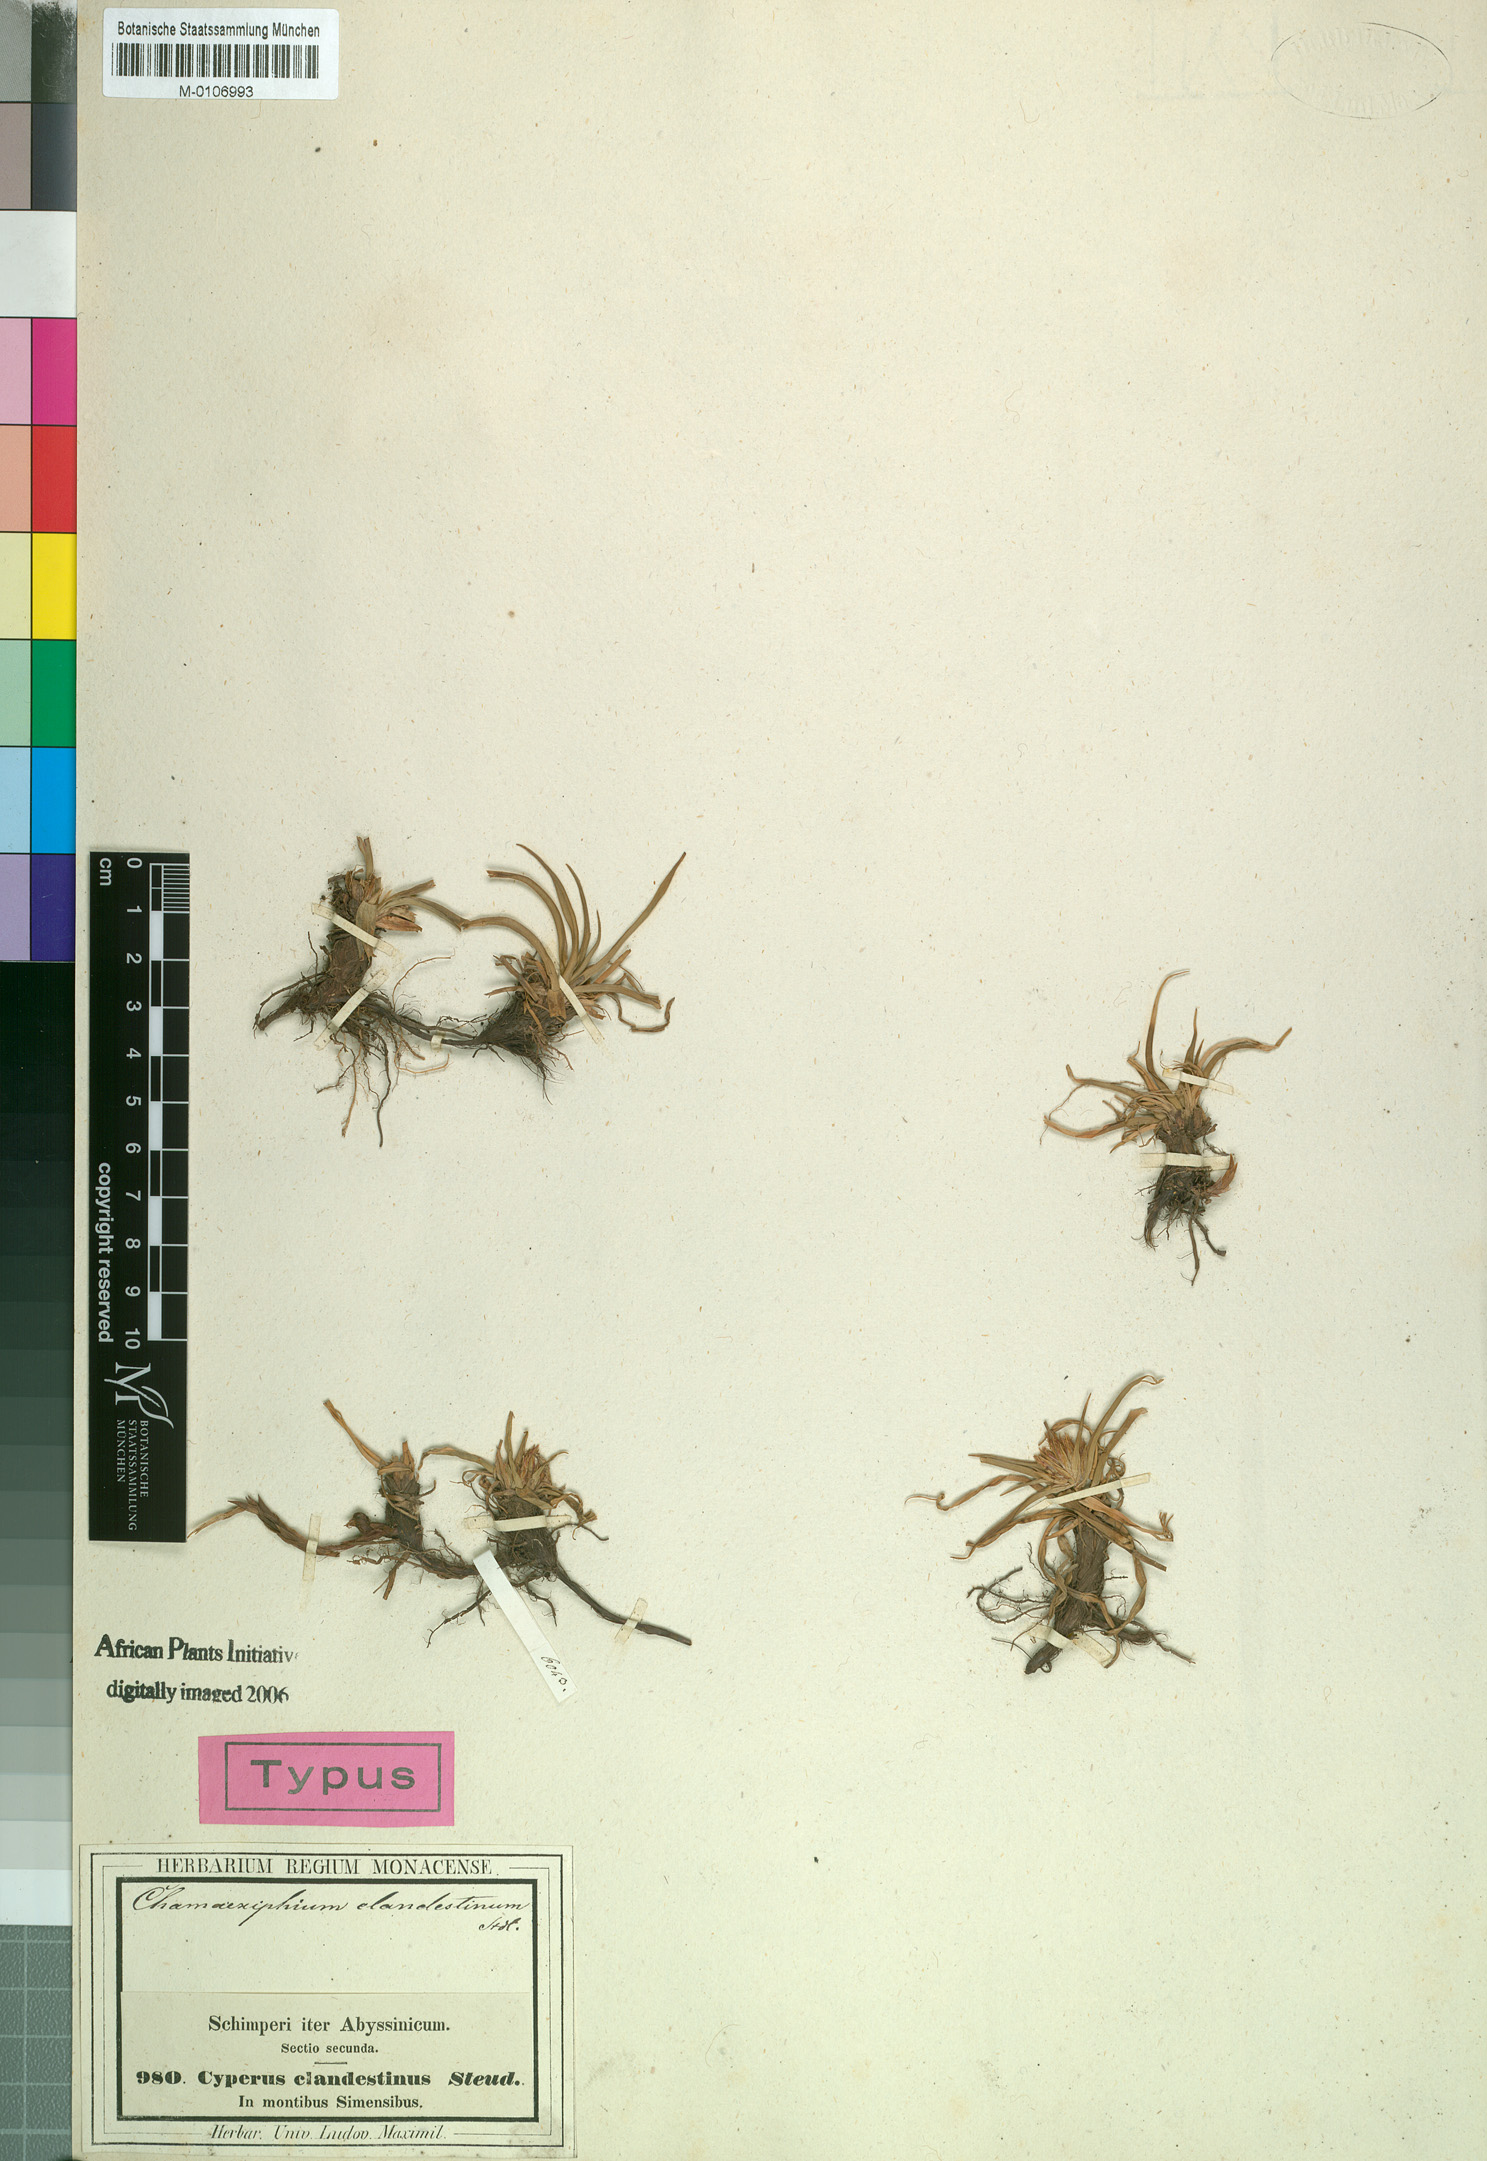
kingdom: Plantae
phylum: Tracheophyta
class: Liliopsida
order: Poales
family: Cyperaceae
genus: Cyperus
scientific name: Cyperus clandestinus
